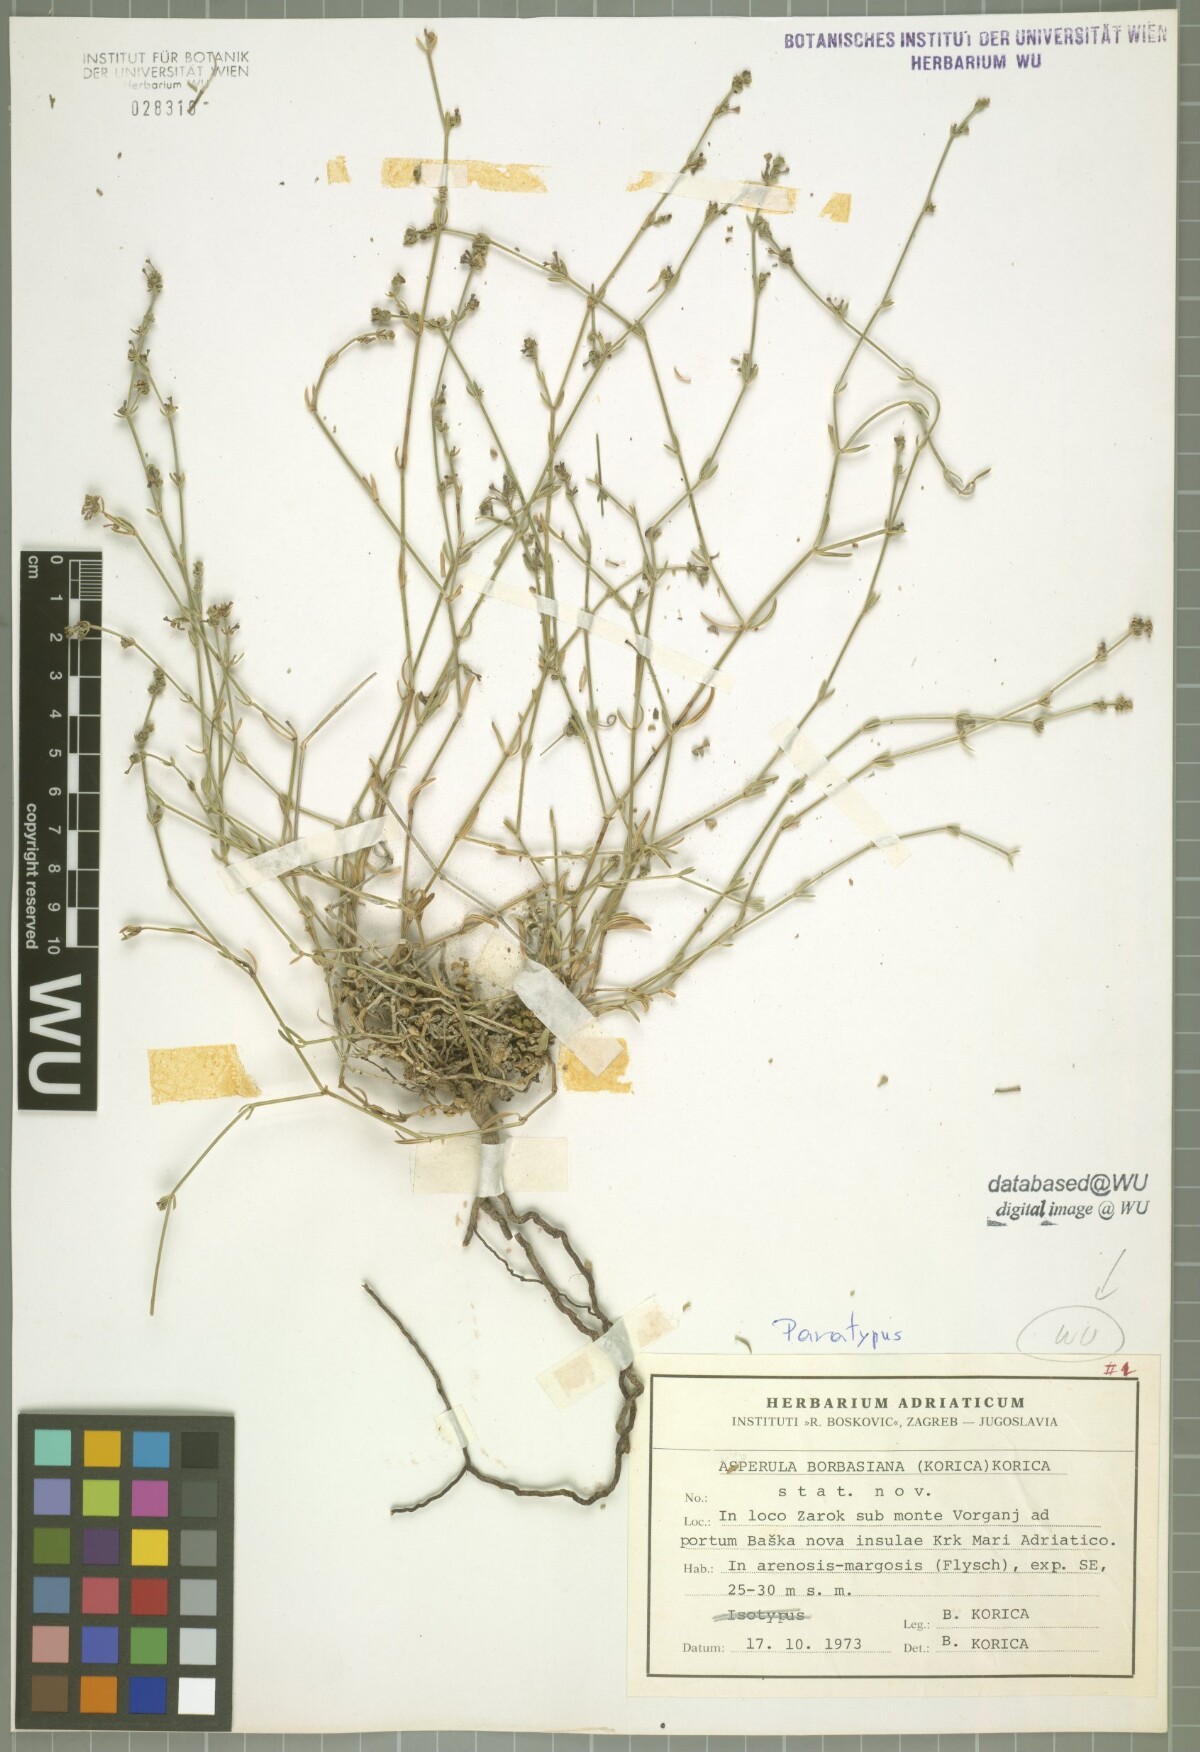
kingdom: Plantae
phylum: Tracheophyta
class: Magnoliopsida
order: Gentianales
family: Rubiaceae
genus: Cynanchica
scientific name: Cynanchica borbasiana
